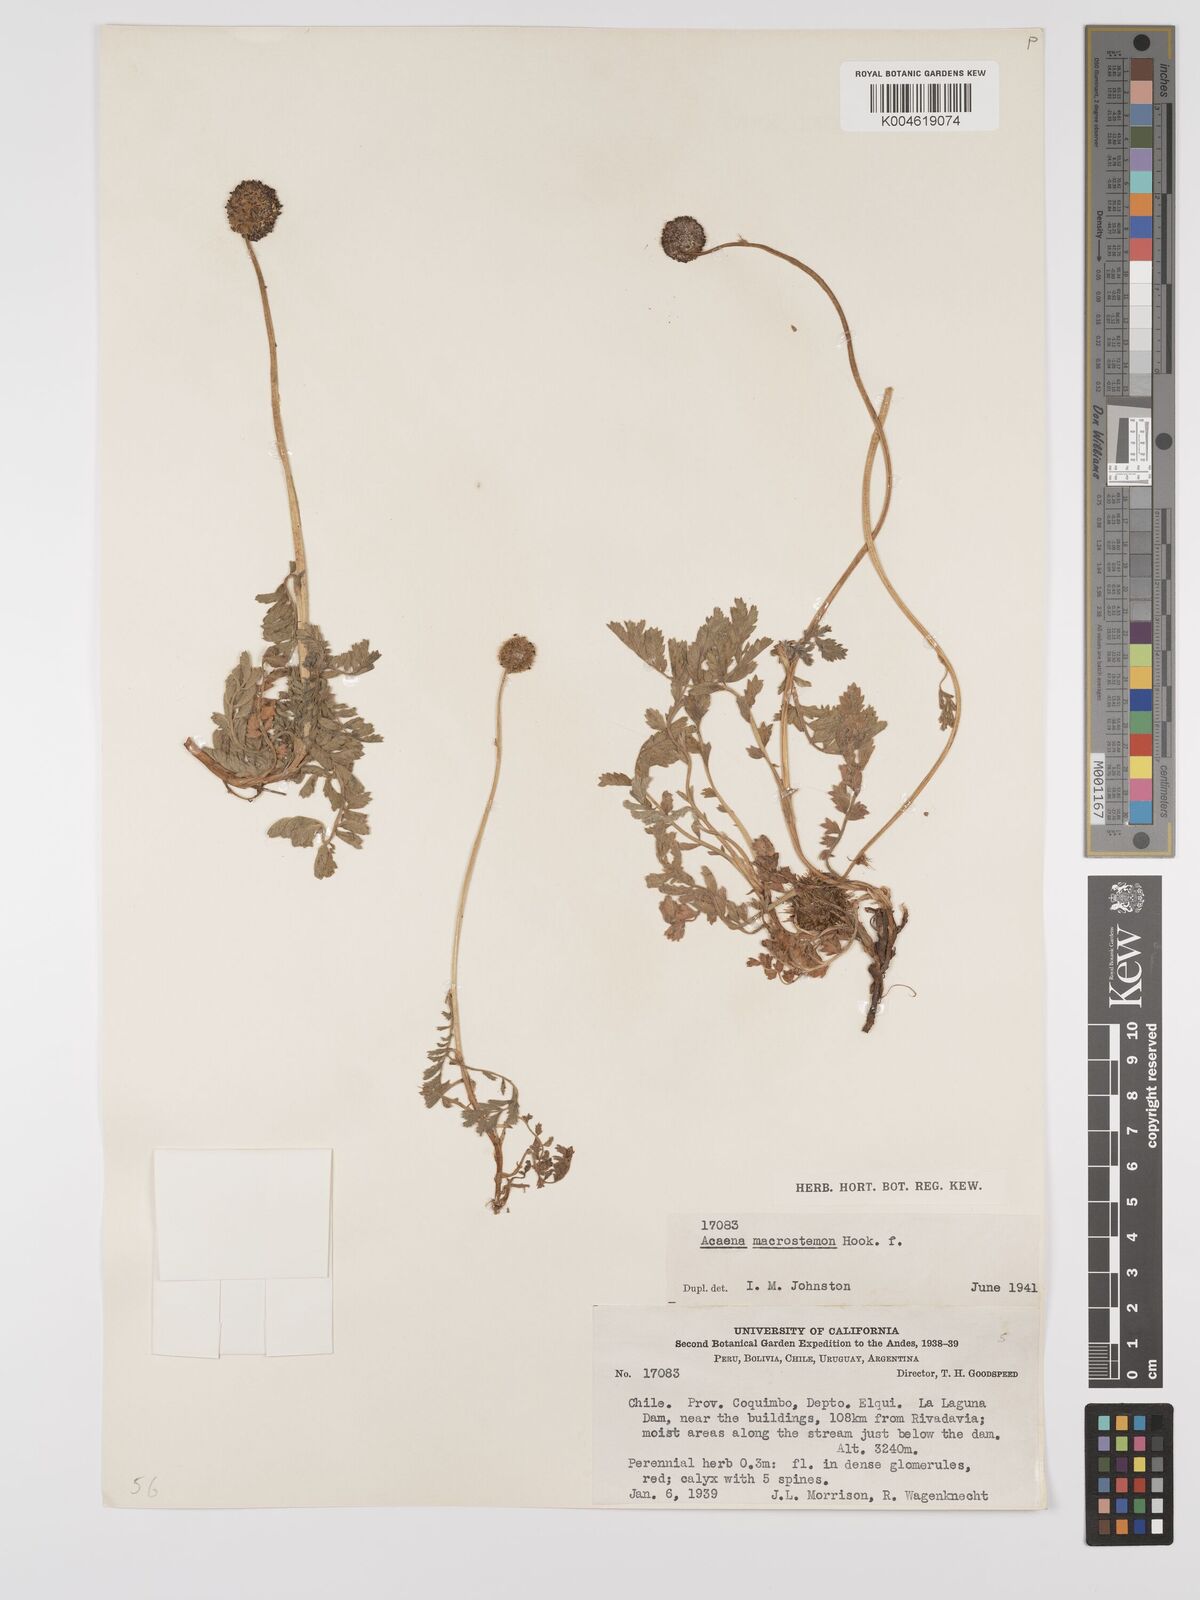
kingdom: Plantae
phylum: Tracheophyta
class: Magnoliopsida
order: Rosales
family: Rosaceae
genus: Acaena
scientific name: Acaena magellanica
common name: New zealand burr
